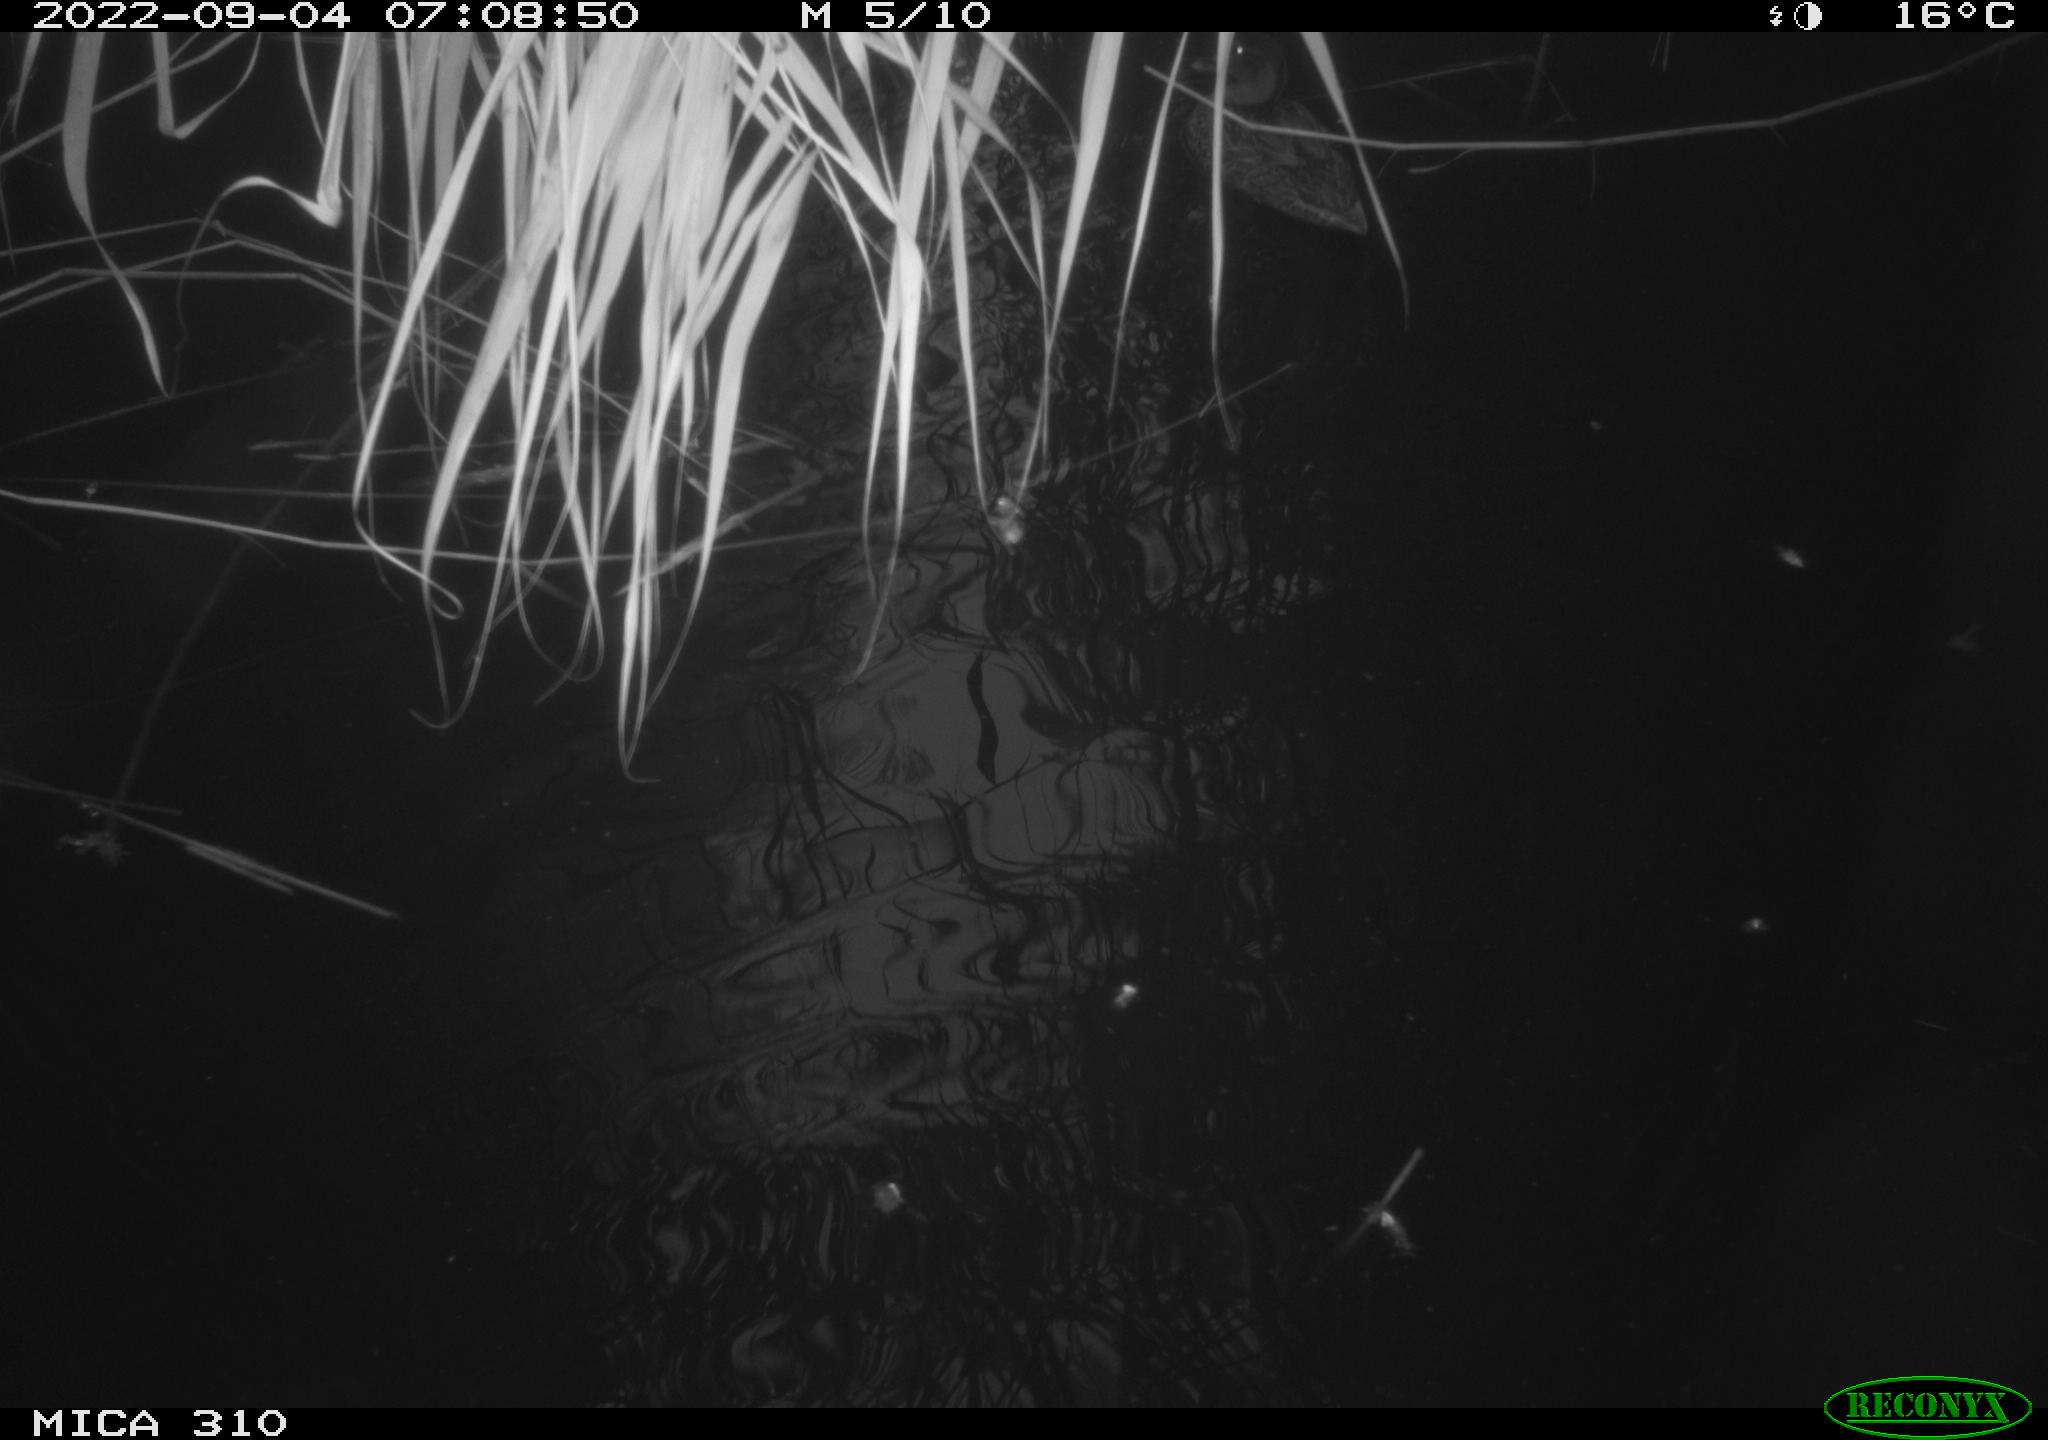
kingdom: Animalia
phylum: Chordata
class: Aves
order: Anseriformes
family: Anatidae
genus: Anas
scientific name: Anas platyrhynchos
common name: Mallard
